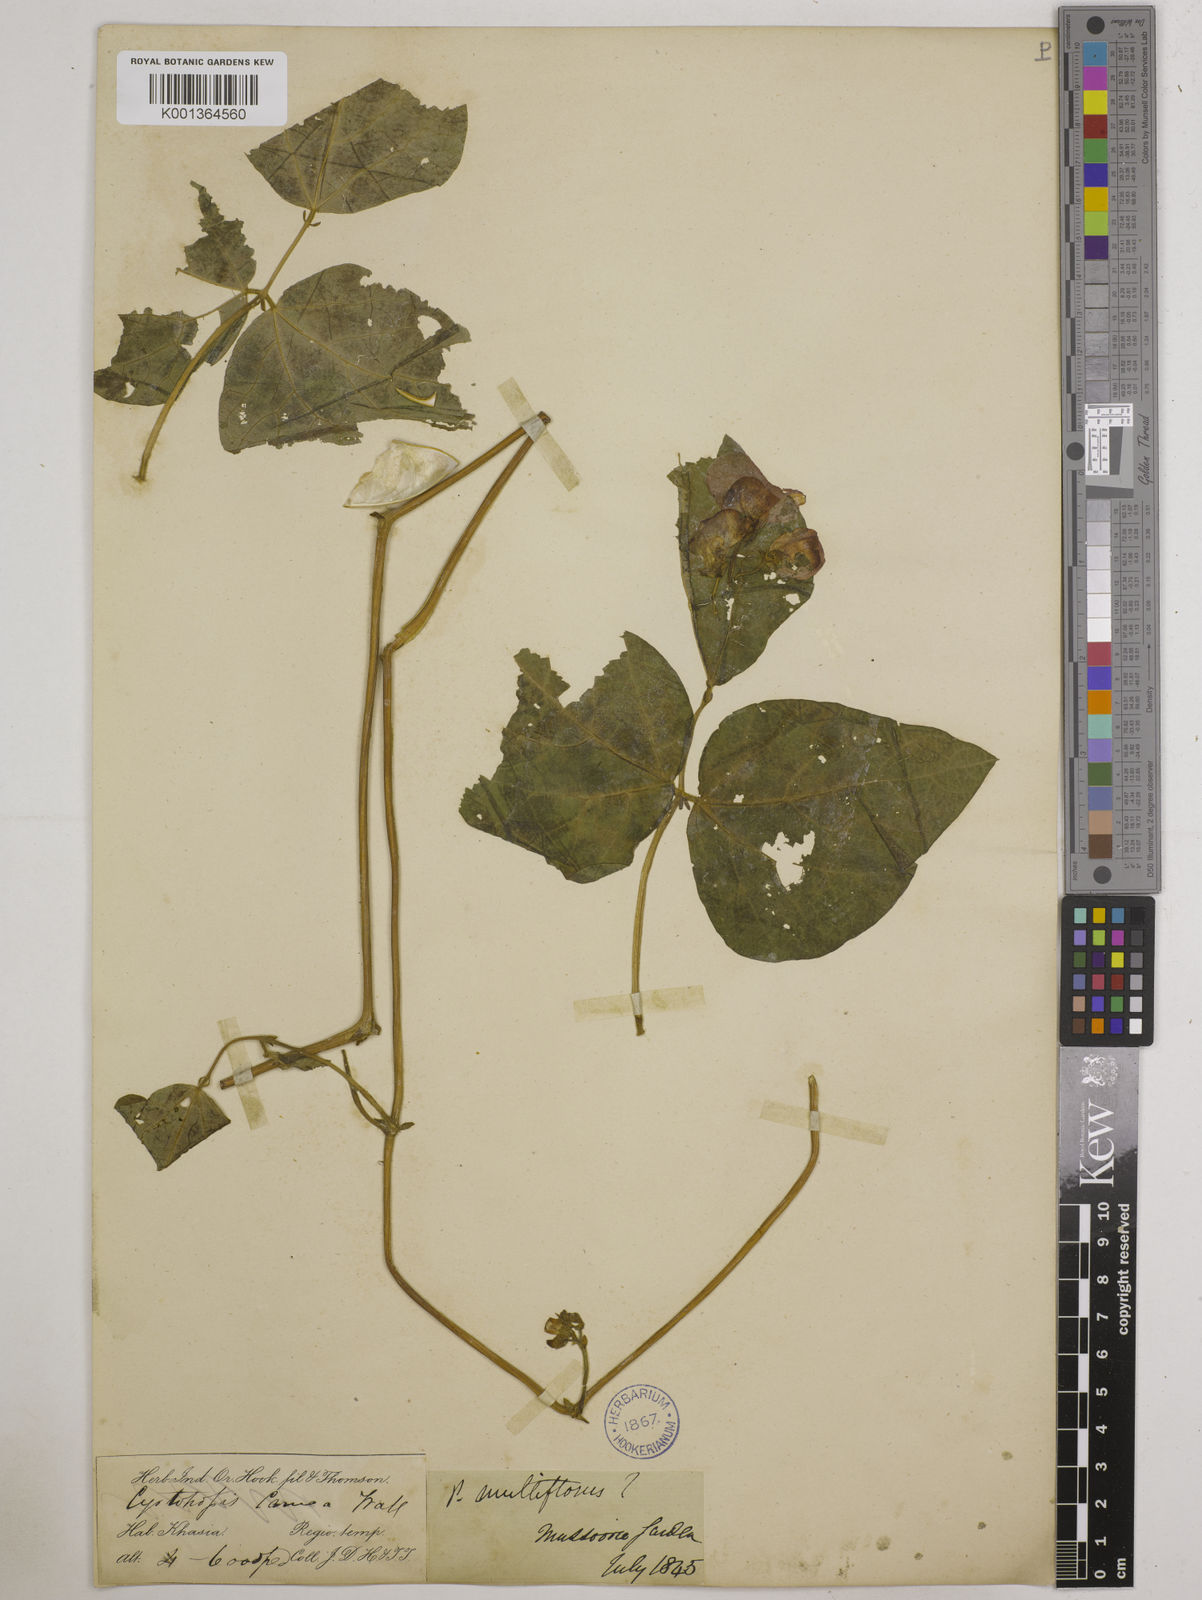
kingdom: Plantae
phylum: Tracheophyta
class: Magnoliopsida
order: Fabales
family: Fabaceae
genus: Phaseolus
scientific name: Phaseolus coccineus
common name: Runner bean
